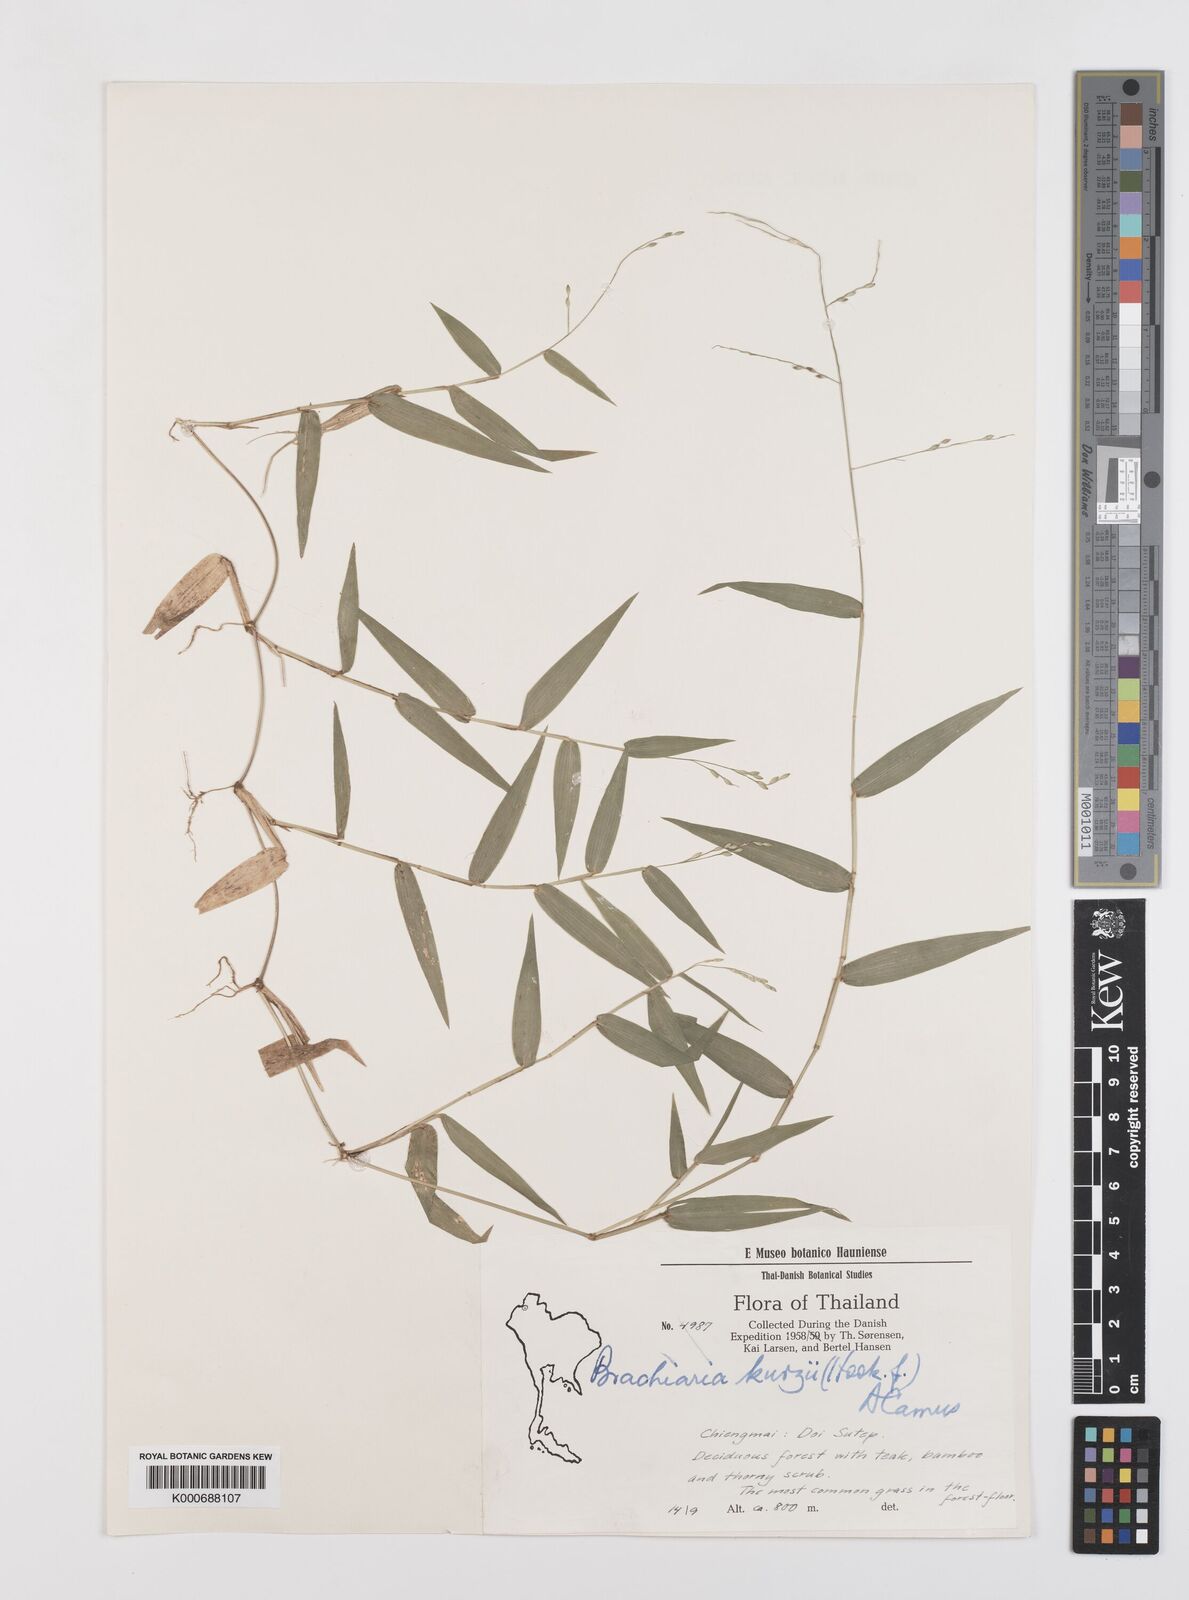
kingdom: Plantae
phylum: Tracheophyta
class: Liliopsida
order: Poales
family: Poaceae
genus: Urochloa
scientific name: Urochloa kurzii
